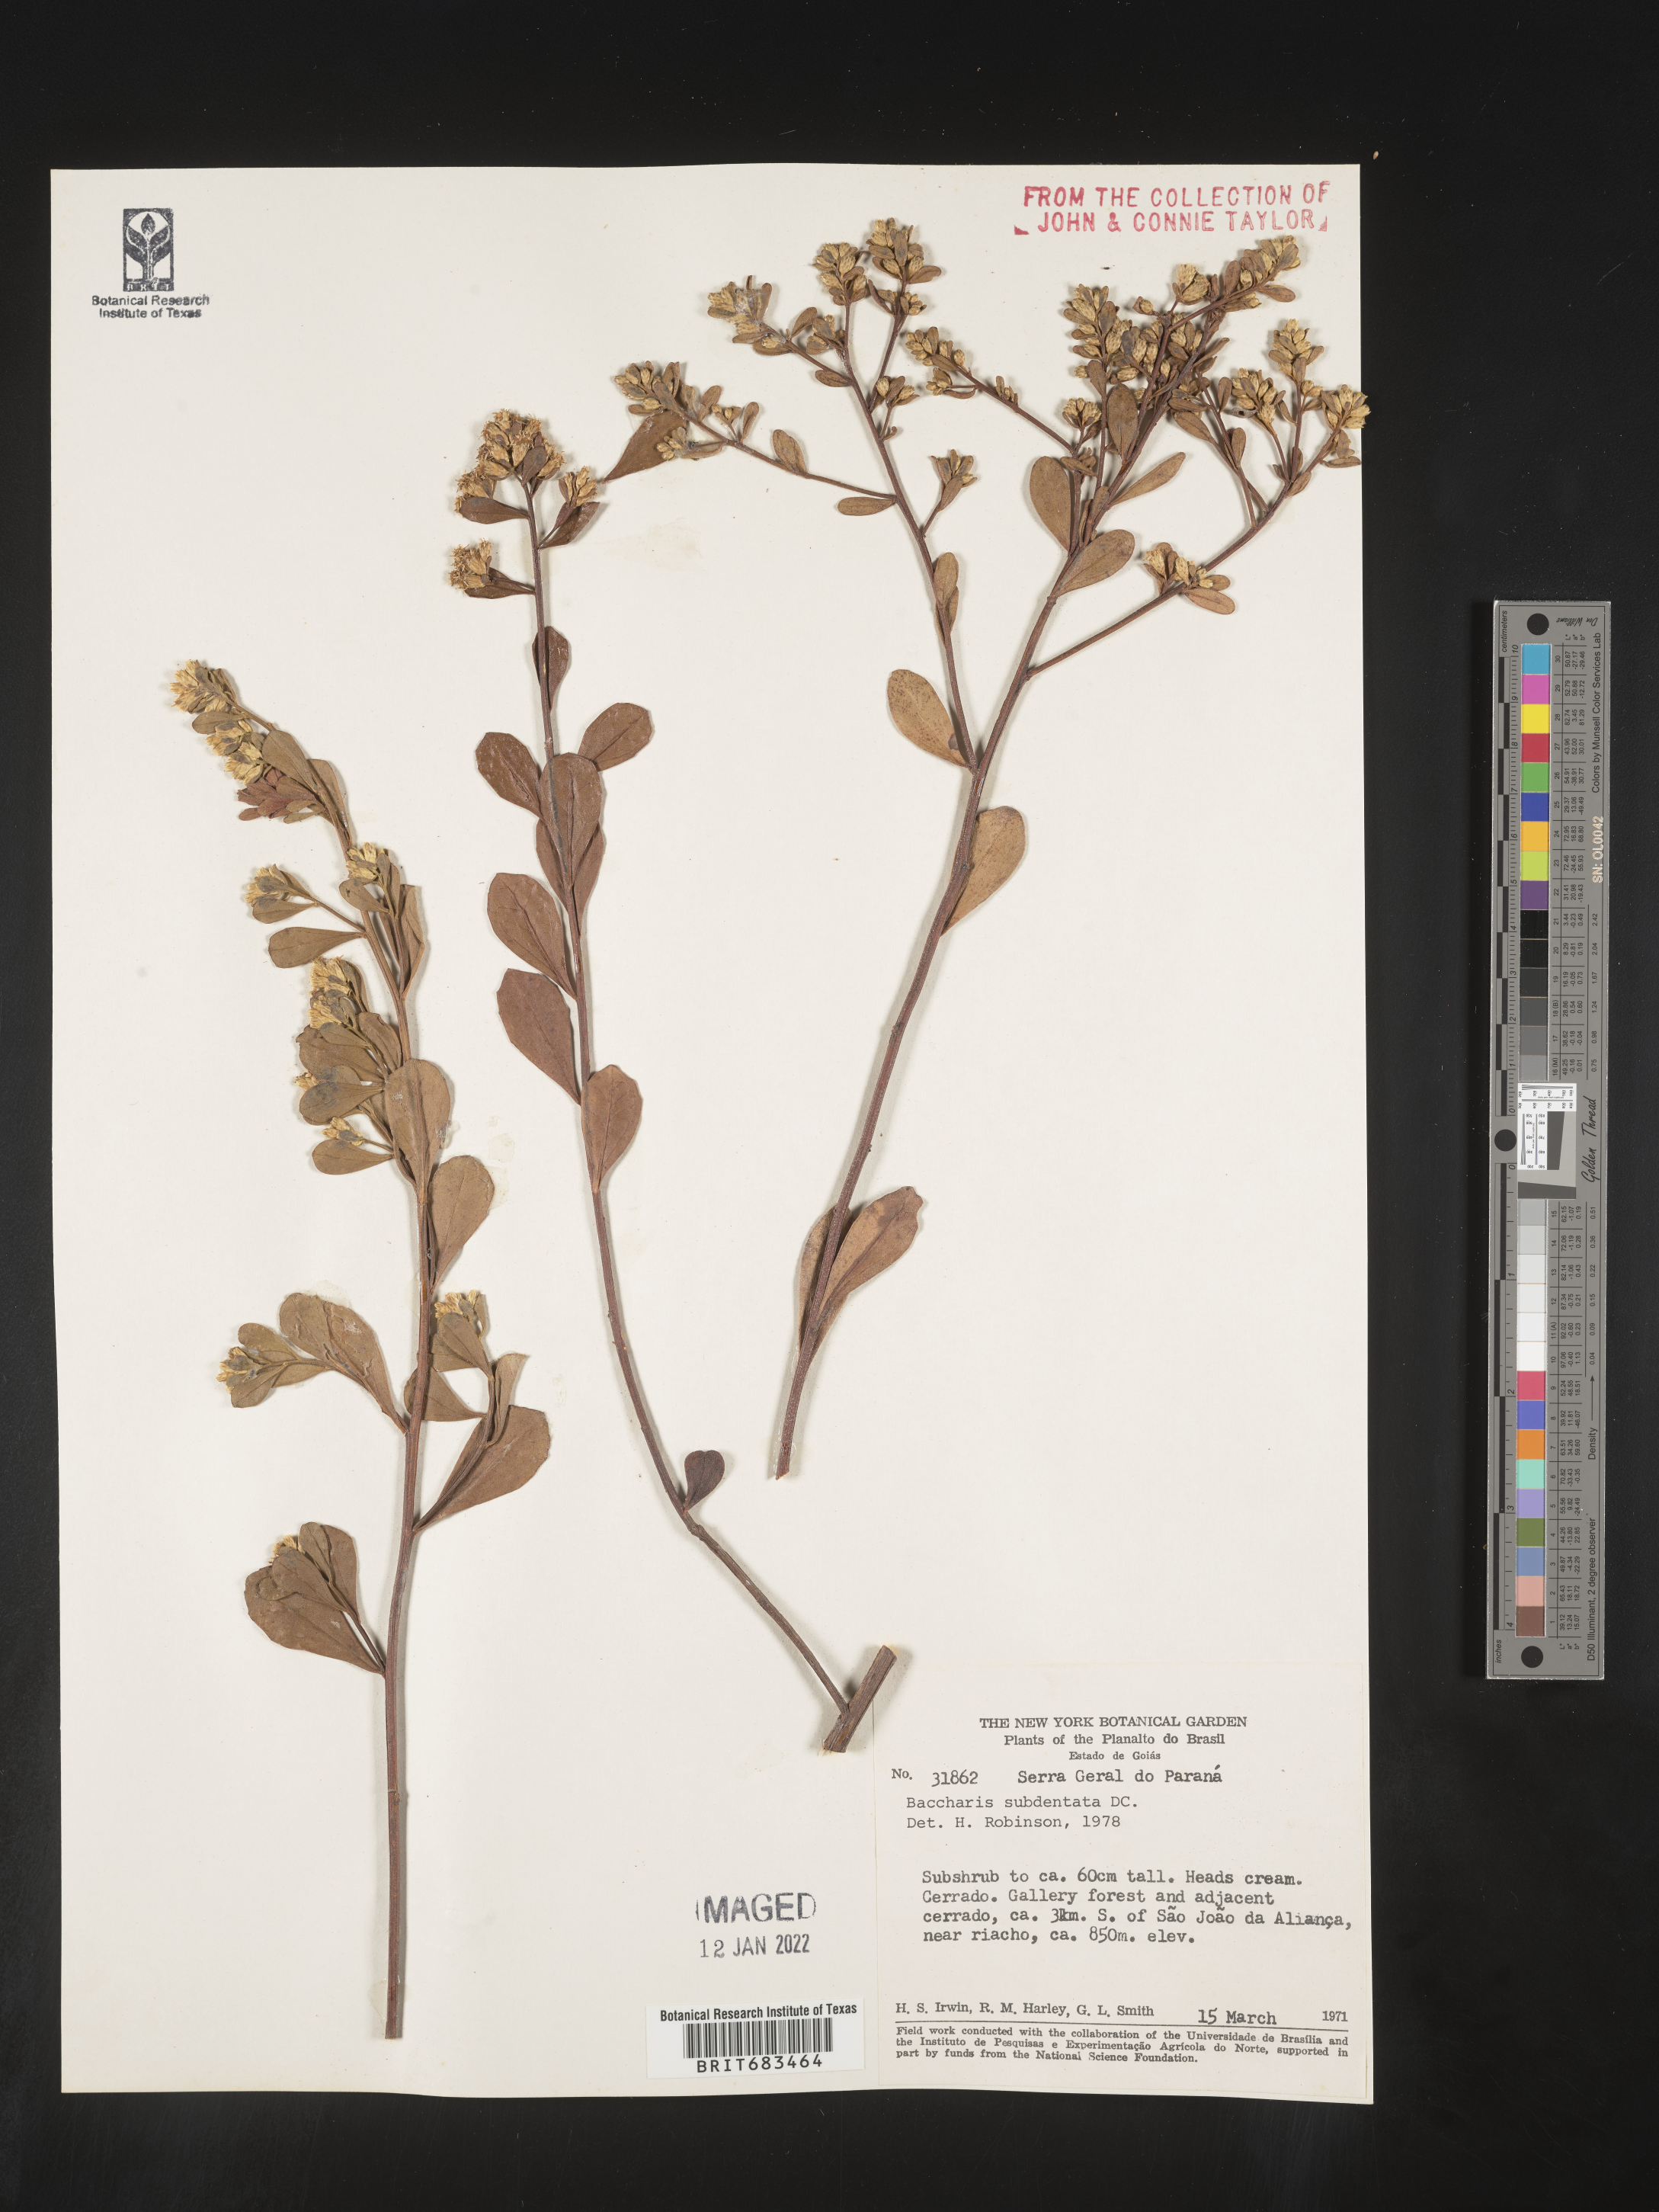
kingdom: Plantae
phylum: Tracheophyta
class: Magnoliopsida
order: Asterales
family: Asteraceae
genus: Baccharis
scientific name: Baccharis
